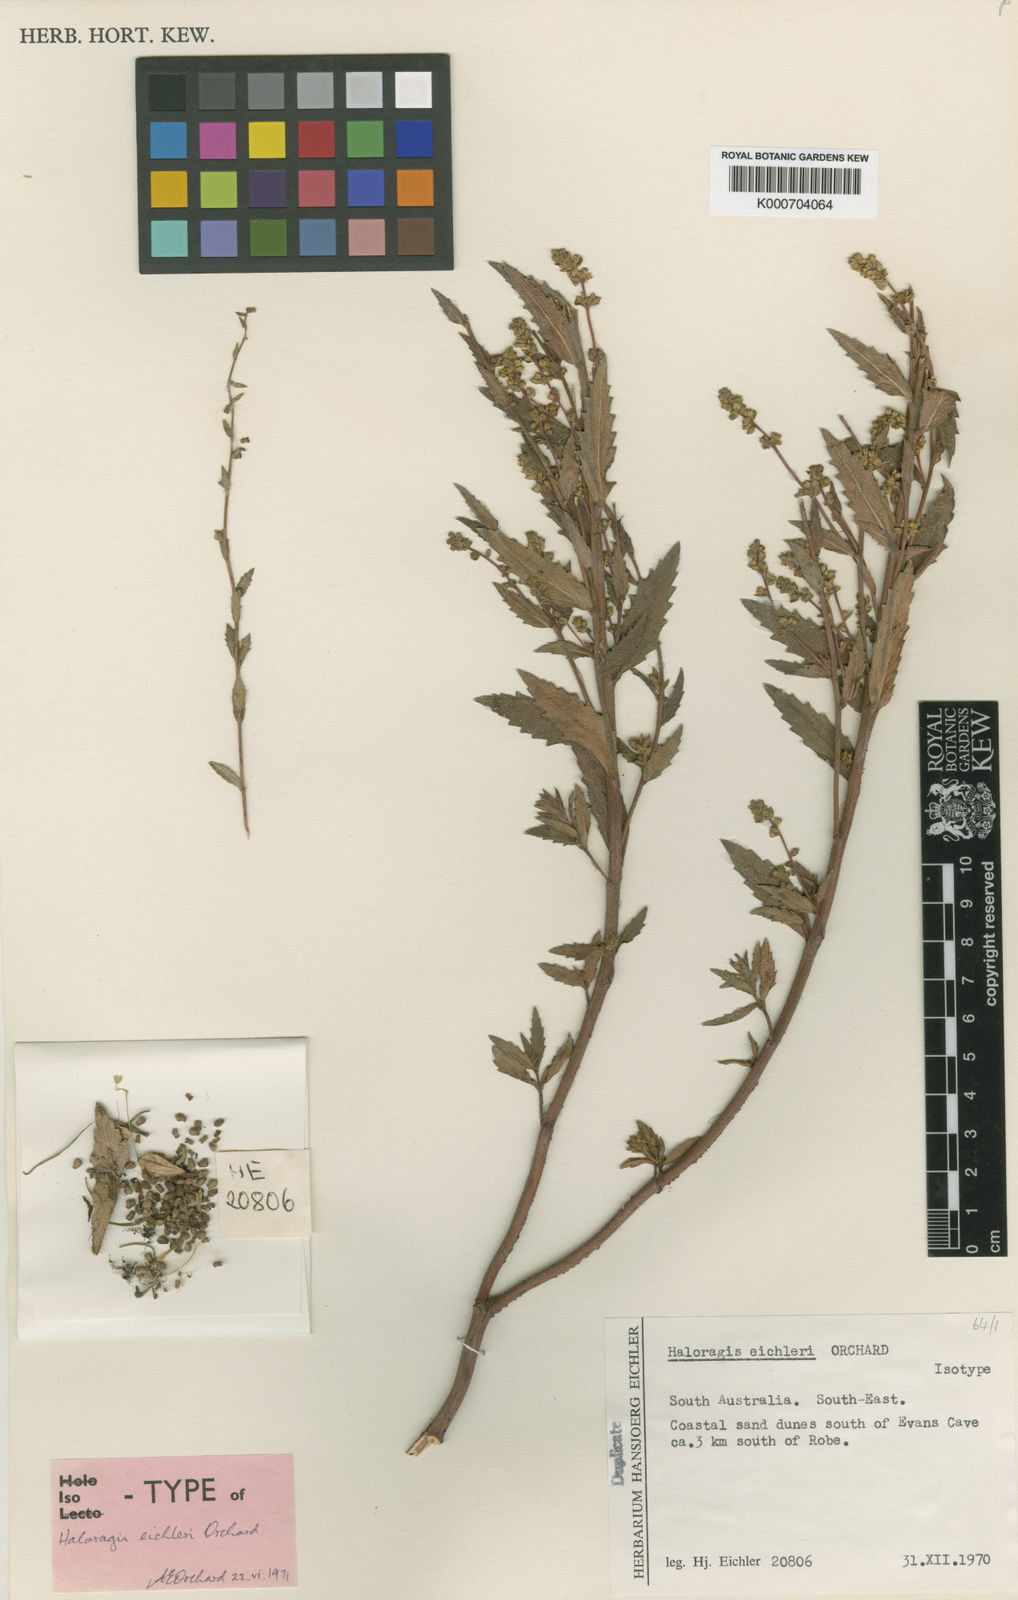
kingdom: Plantae
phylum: Tracheophyta
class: Magnoliopsida
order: Saxifragales
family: Haloragaceae
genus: Haloragis
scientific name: Haloragis eichleri
